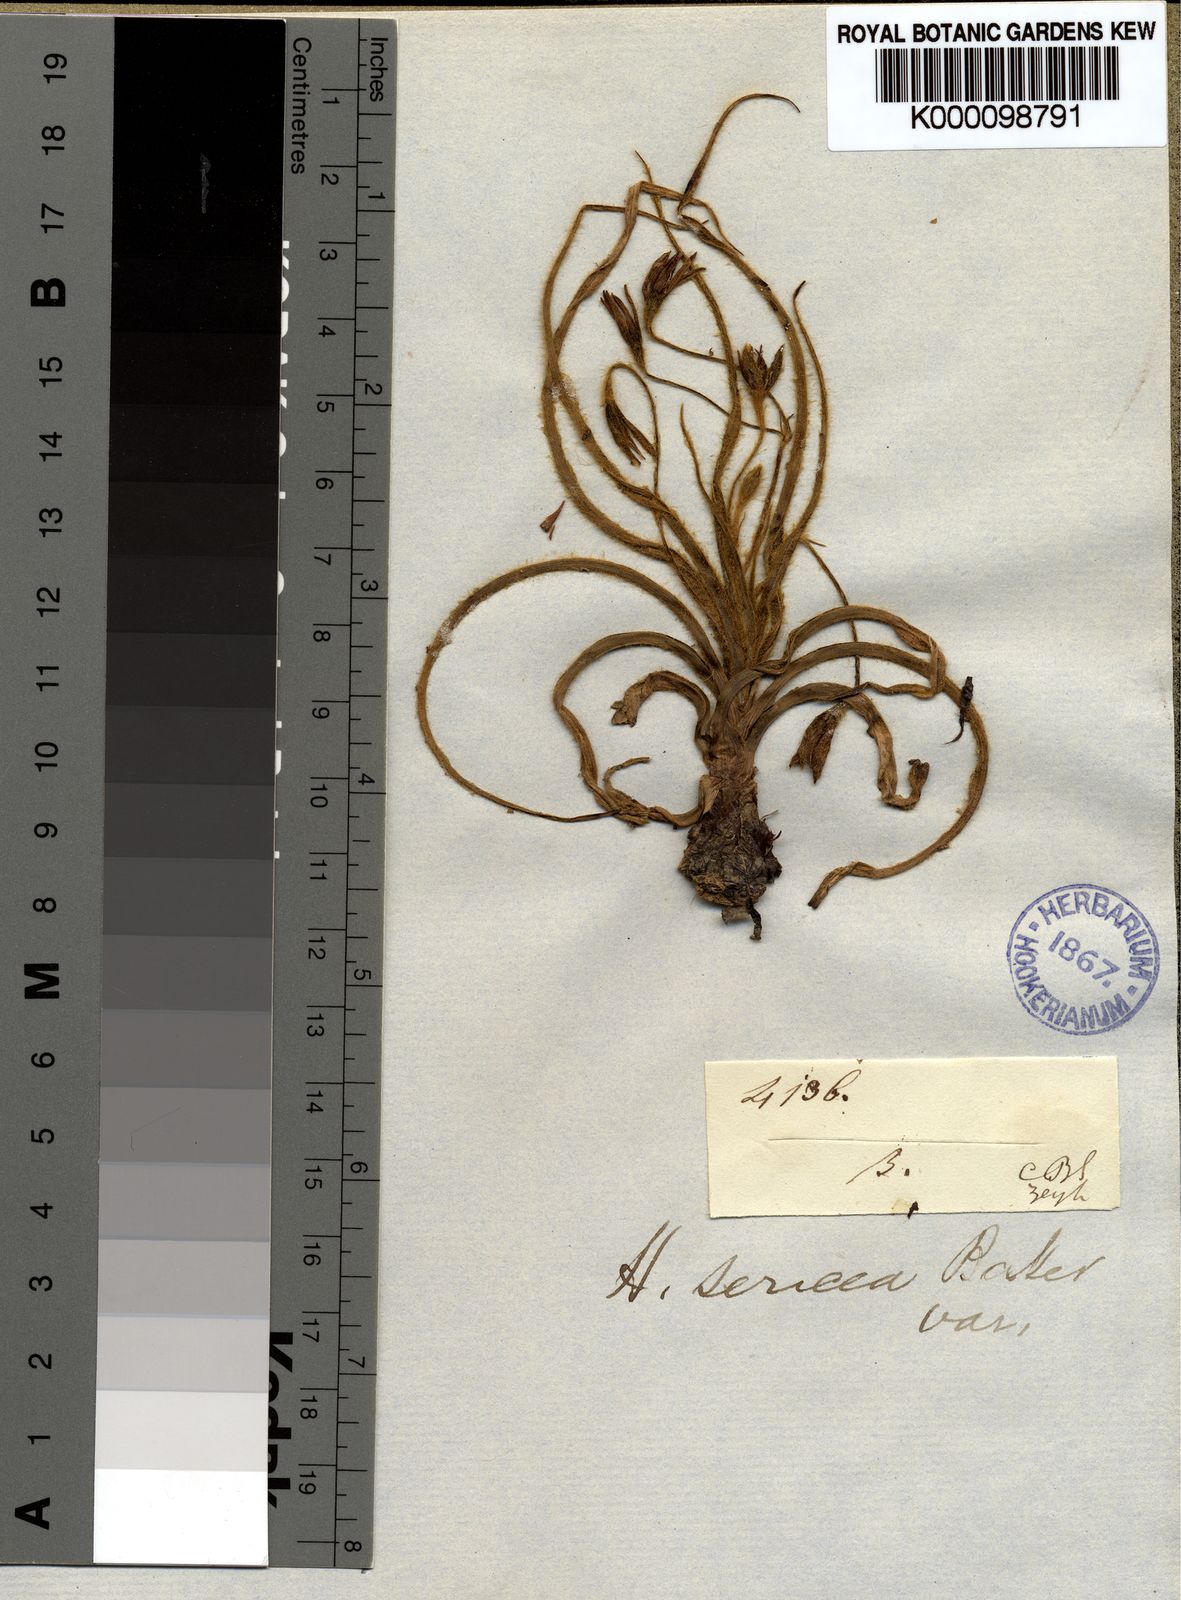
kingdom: Plantae
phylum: Tracheophyta
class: Liliopsida
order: Asparagales
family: Hypoxidaceae
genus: Hypoxis
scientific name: Hypoxis argentea
